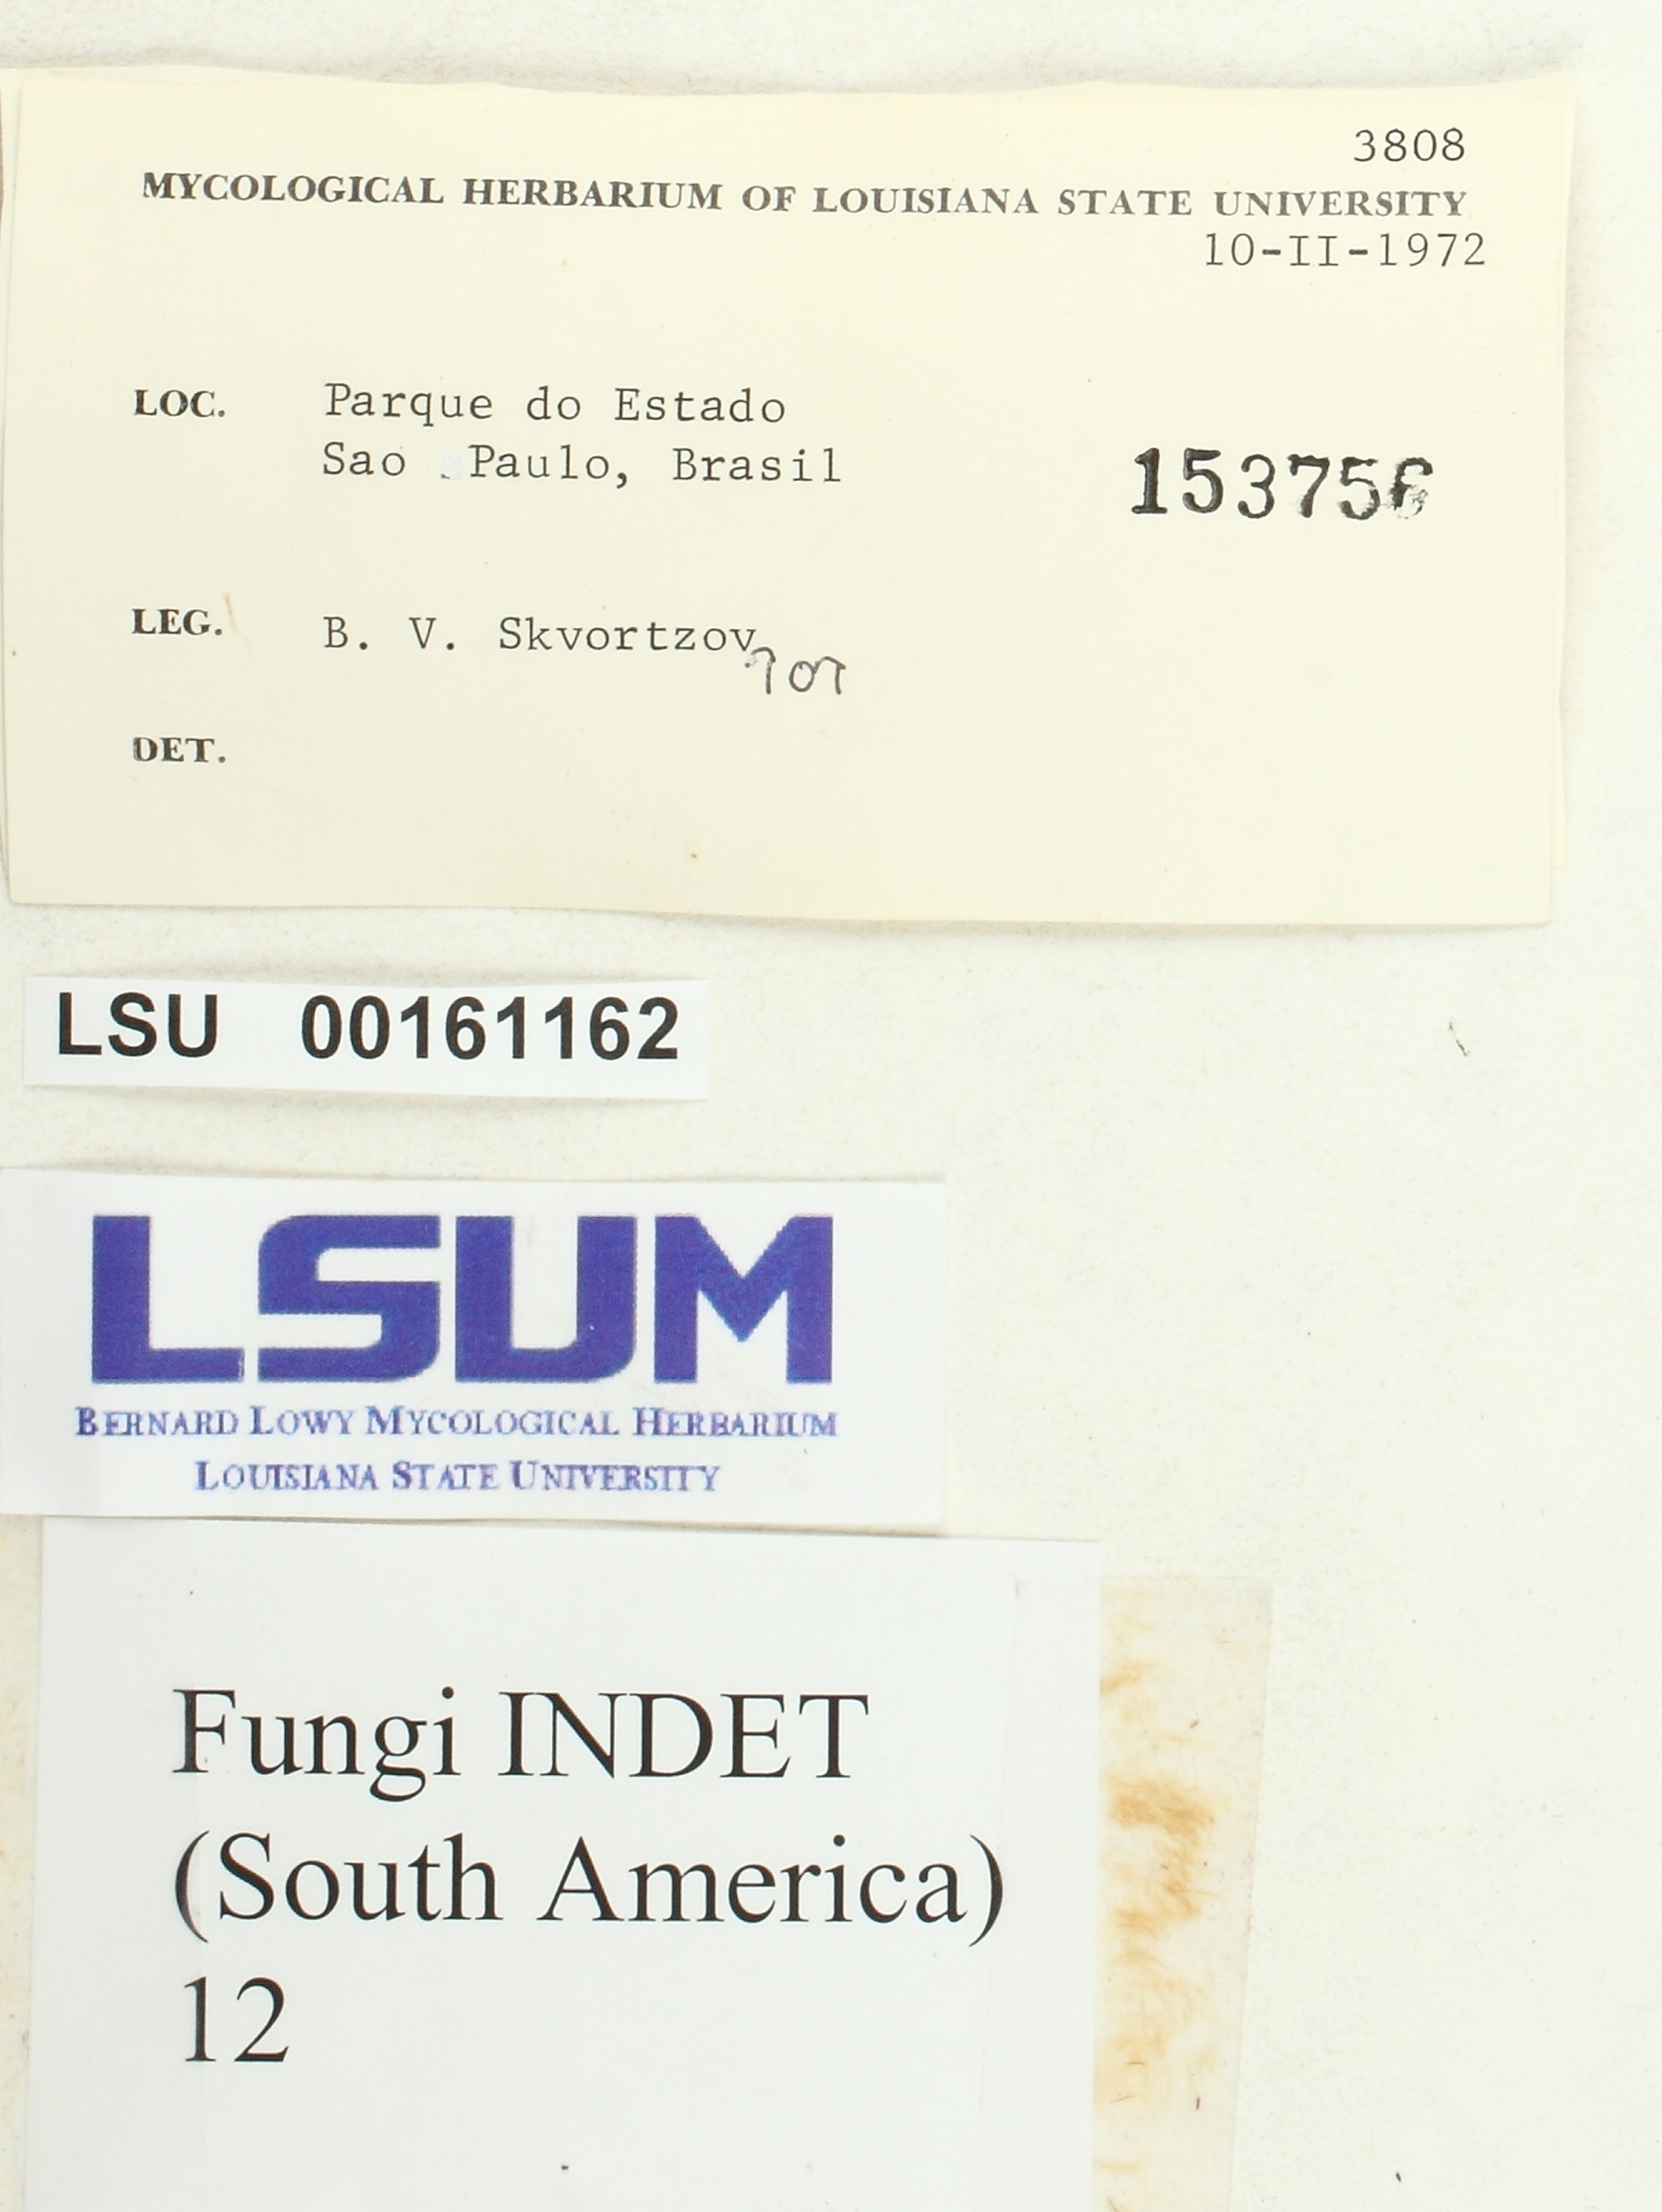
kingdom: Fungi
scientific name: Fungi
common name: Fungi
